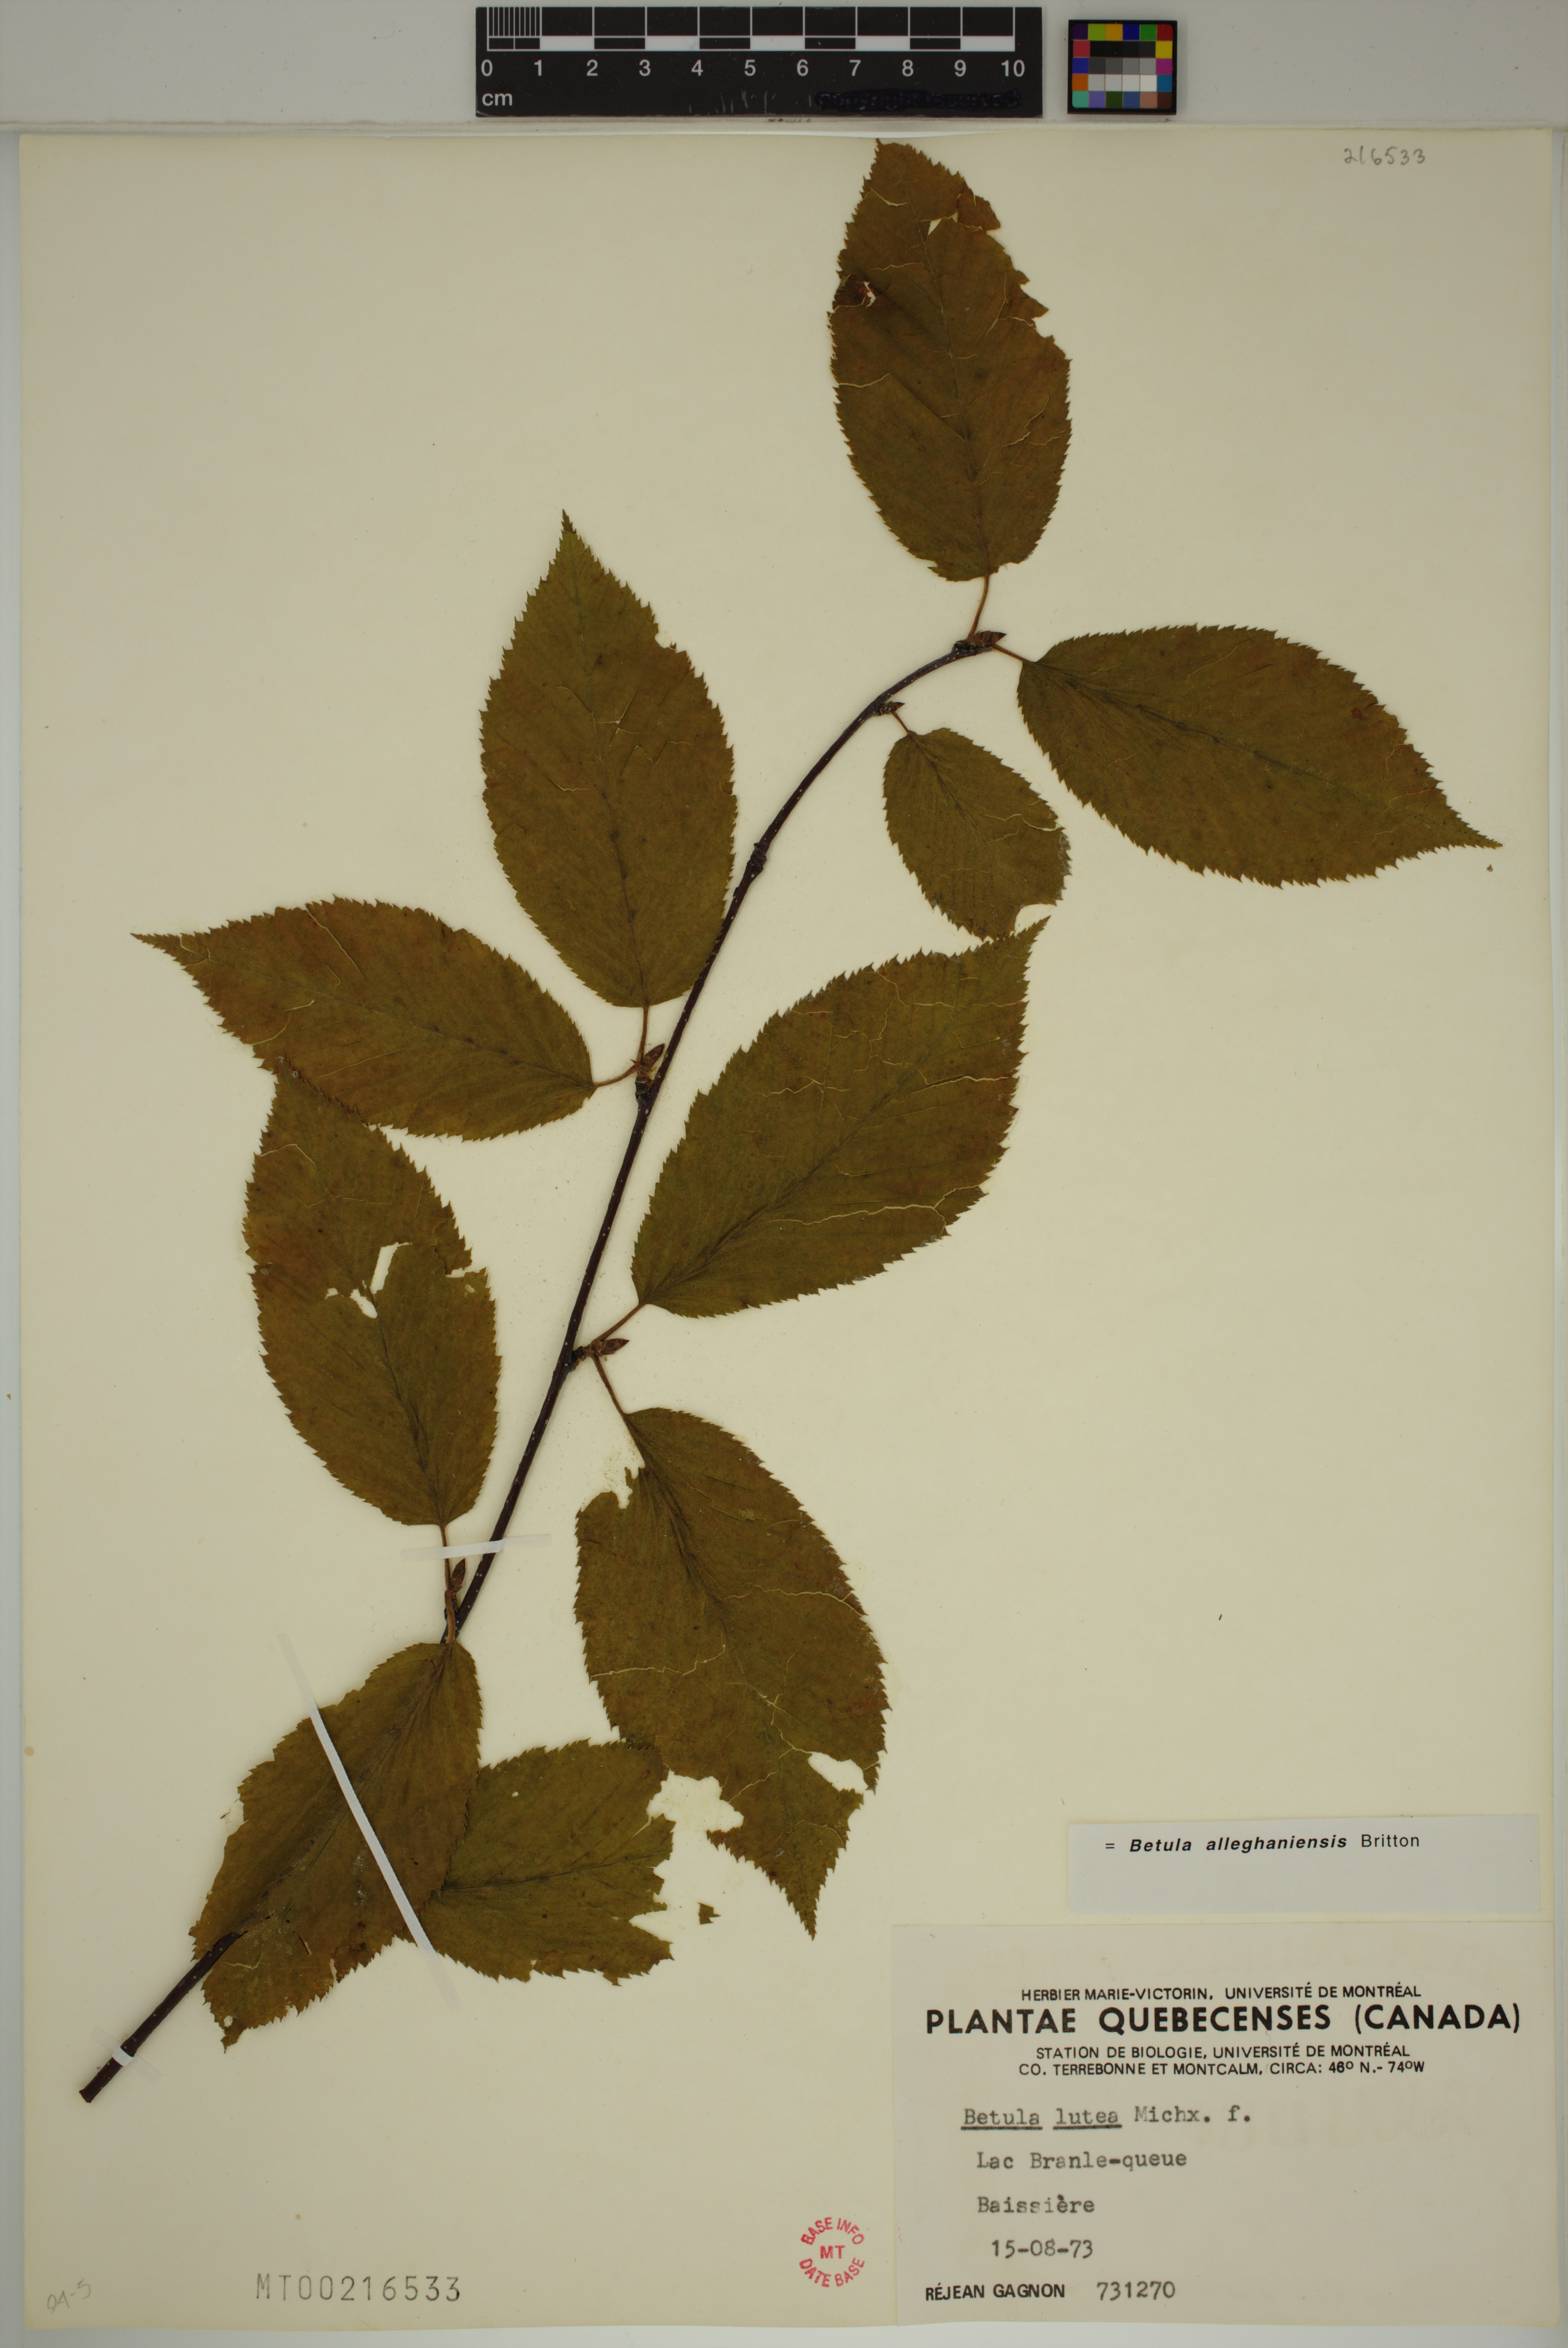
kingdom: Plantae
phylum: Tracheophyta
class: Magnoliopsida
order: Fagales
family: Betulaceae
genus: Betula
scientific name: Betula alleghaniensis
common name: Yellow birch
